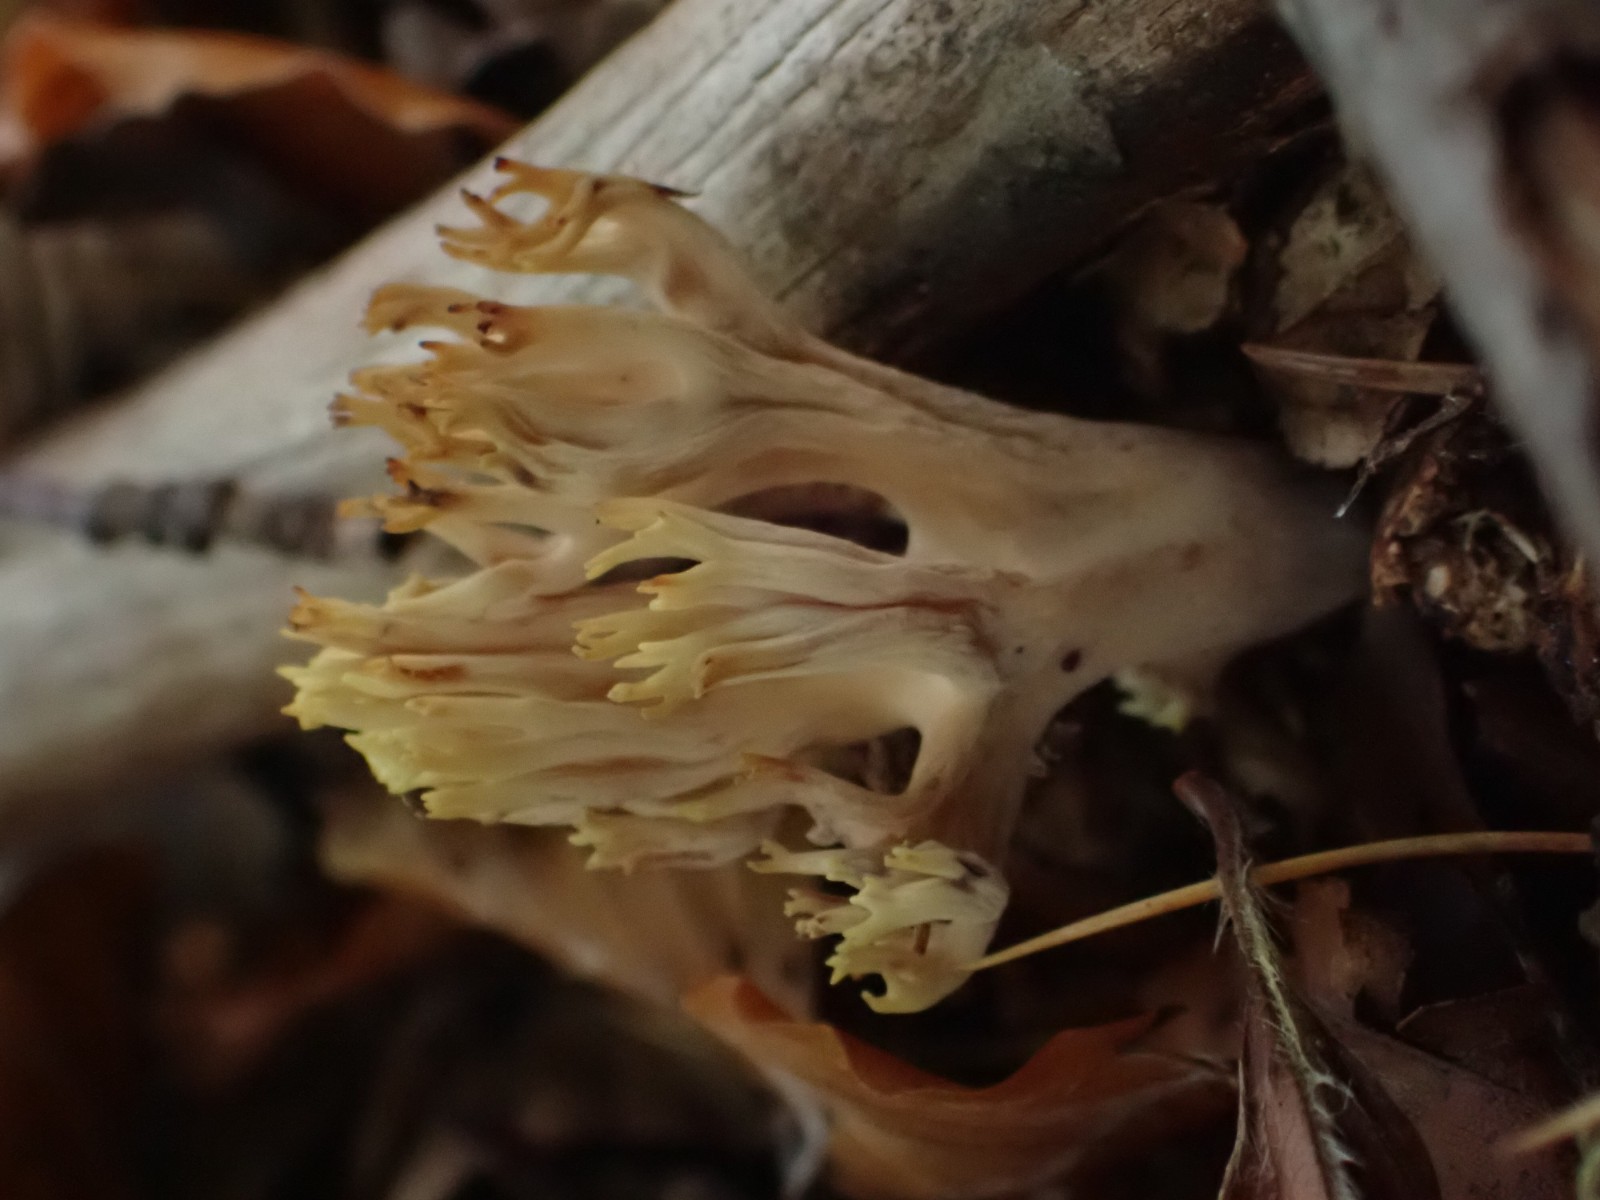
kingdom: Fungi
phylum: Basidiomycota
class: Agaricomycetes
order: Gomphales
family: Gomphaceae
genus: Ramaria
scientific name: Ramaria stricta
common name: rank koralsvamp
